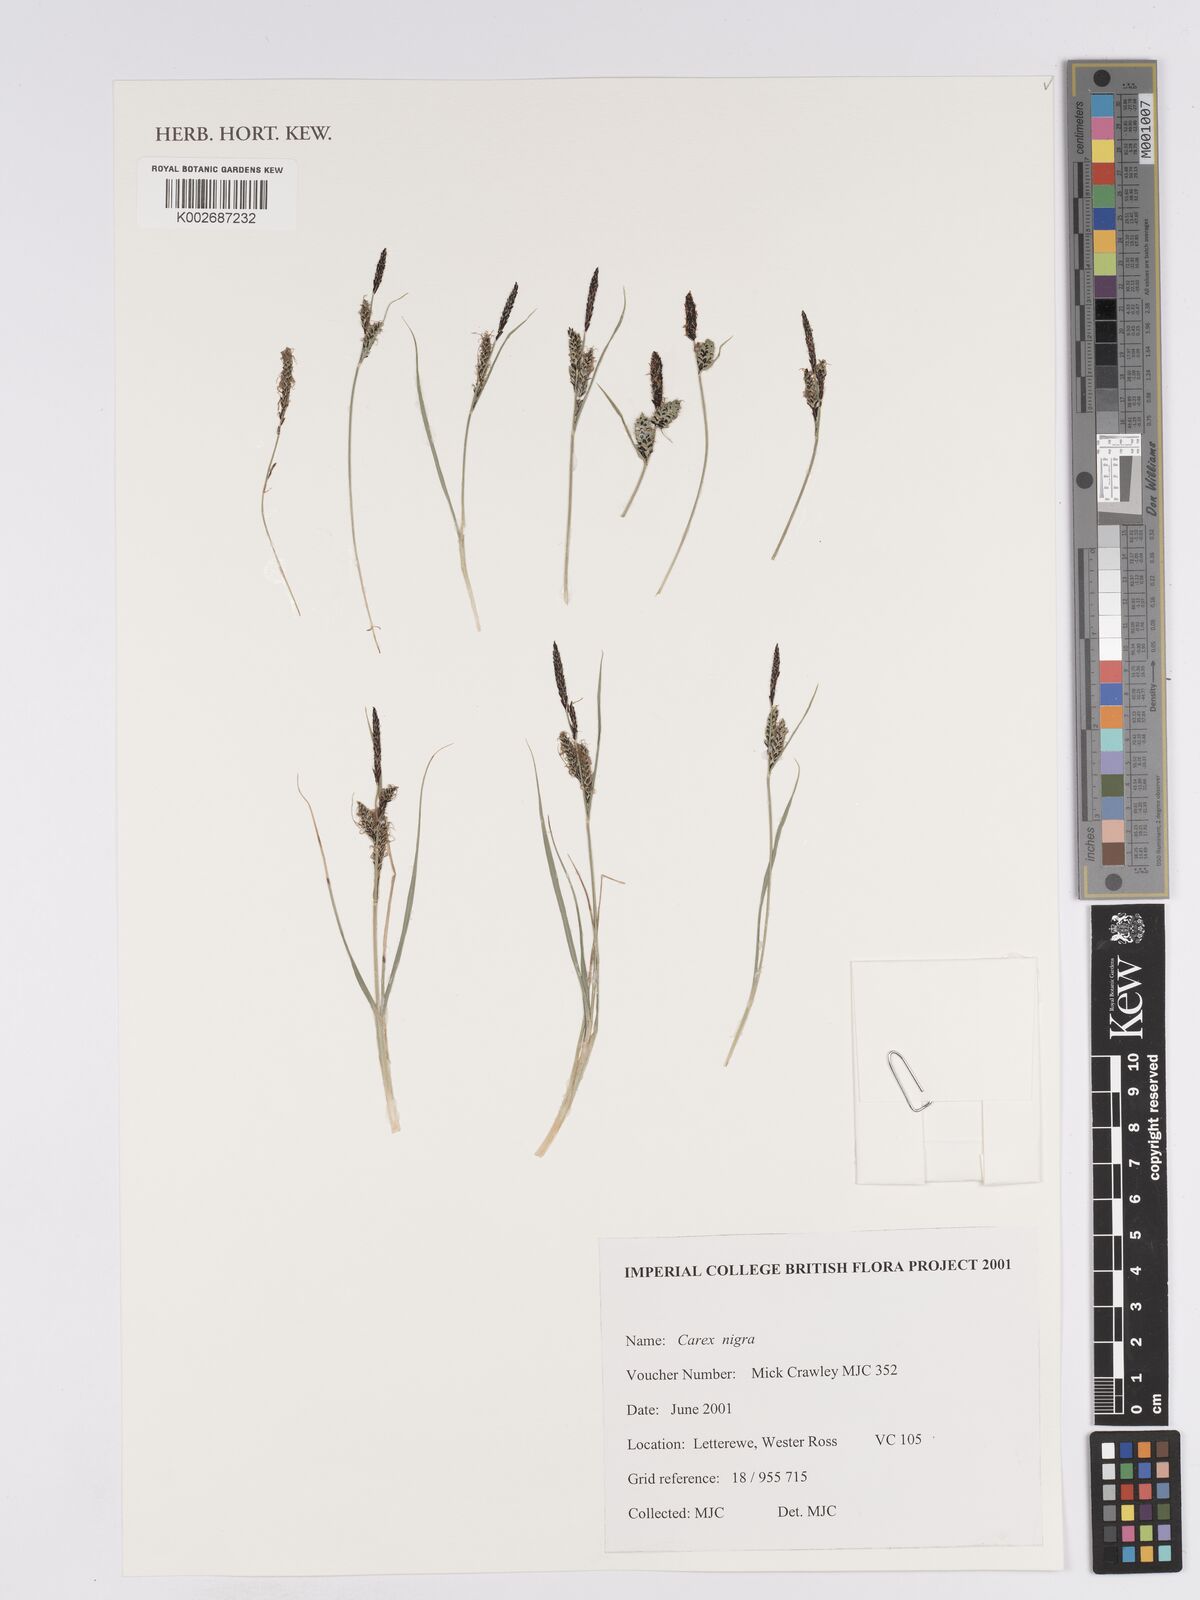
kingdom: Plantae
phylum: Tracheophyta
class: Liliopsida
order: Poales
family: Cyperaceae
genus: Carex
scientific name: Carex nigra
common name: Common sedge
